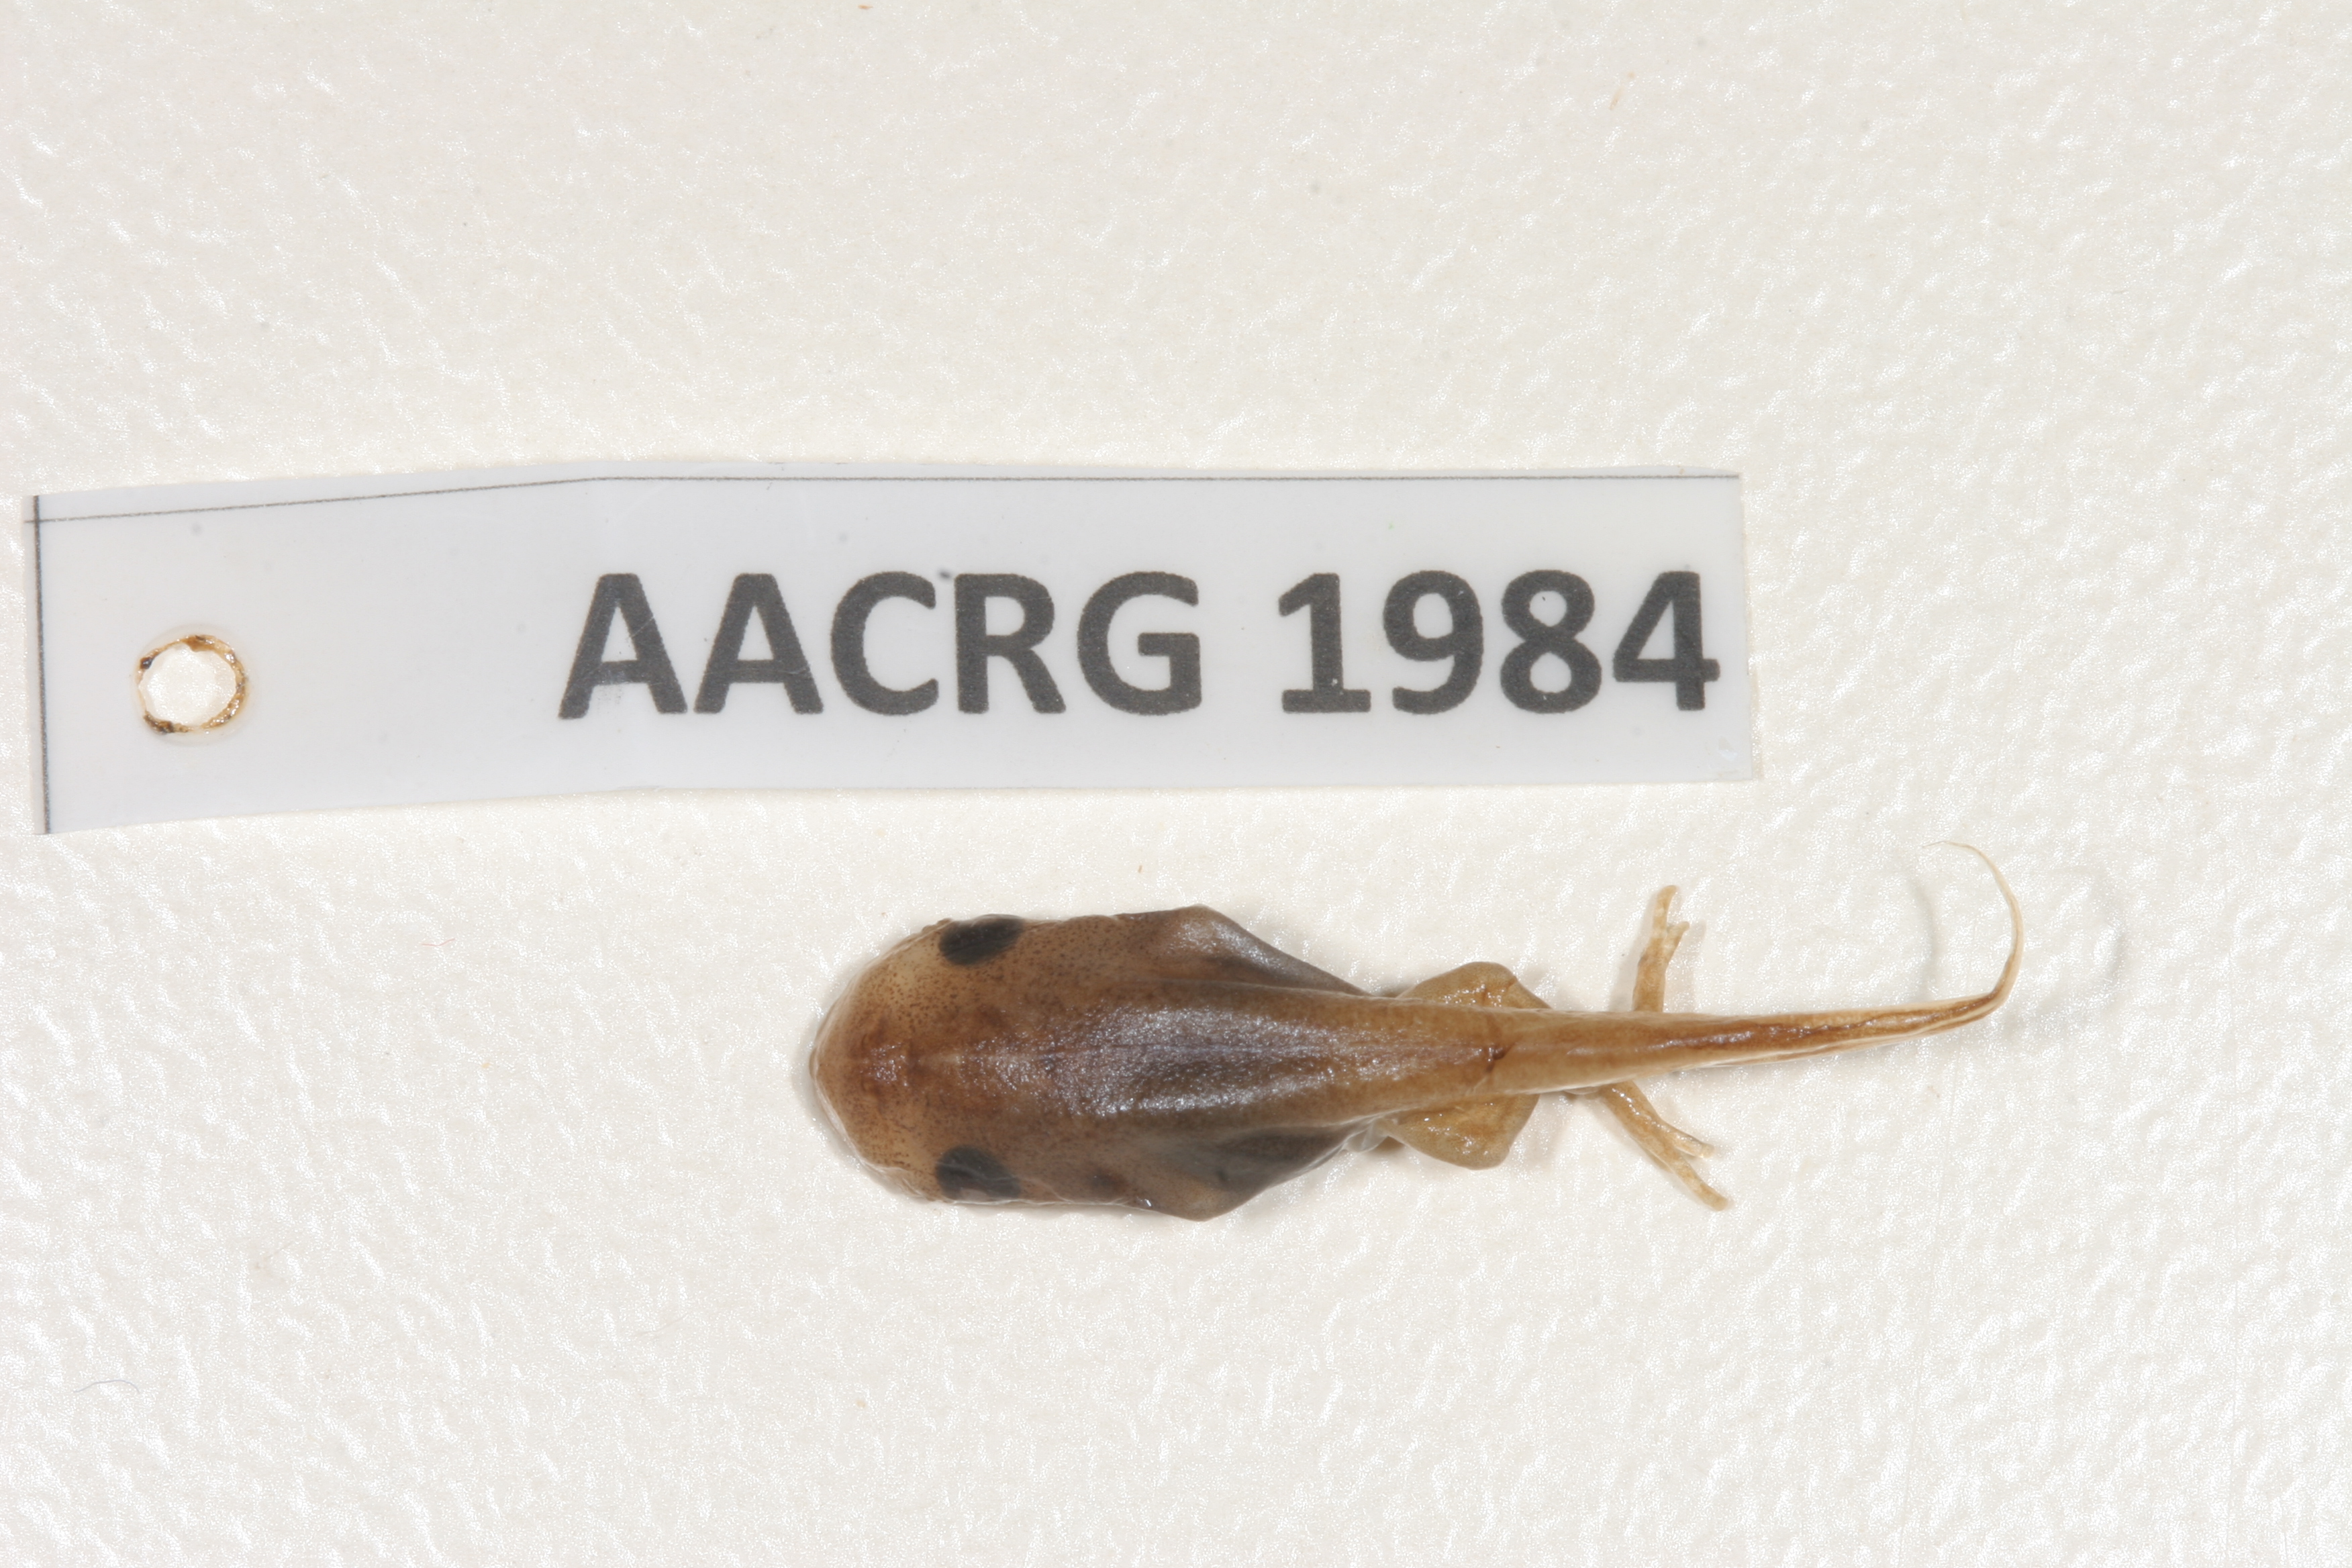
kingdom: Animalia
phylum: Chordata
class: Amphibia
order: Anura
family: Microhylidae
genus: Phrynomantis
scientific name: Phrynomantis bifasciatus
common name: Banded rubber frog
